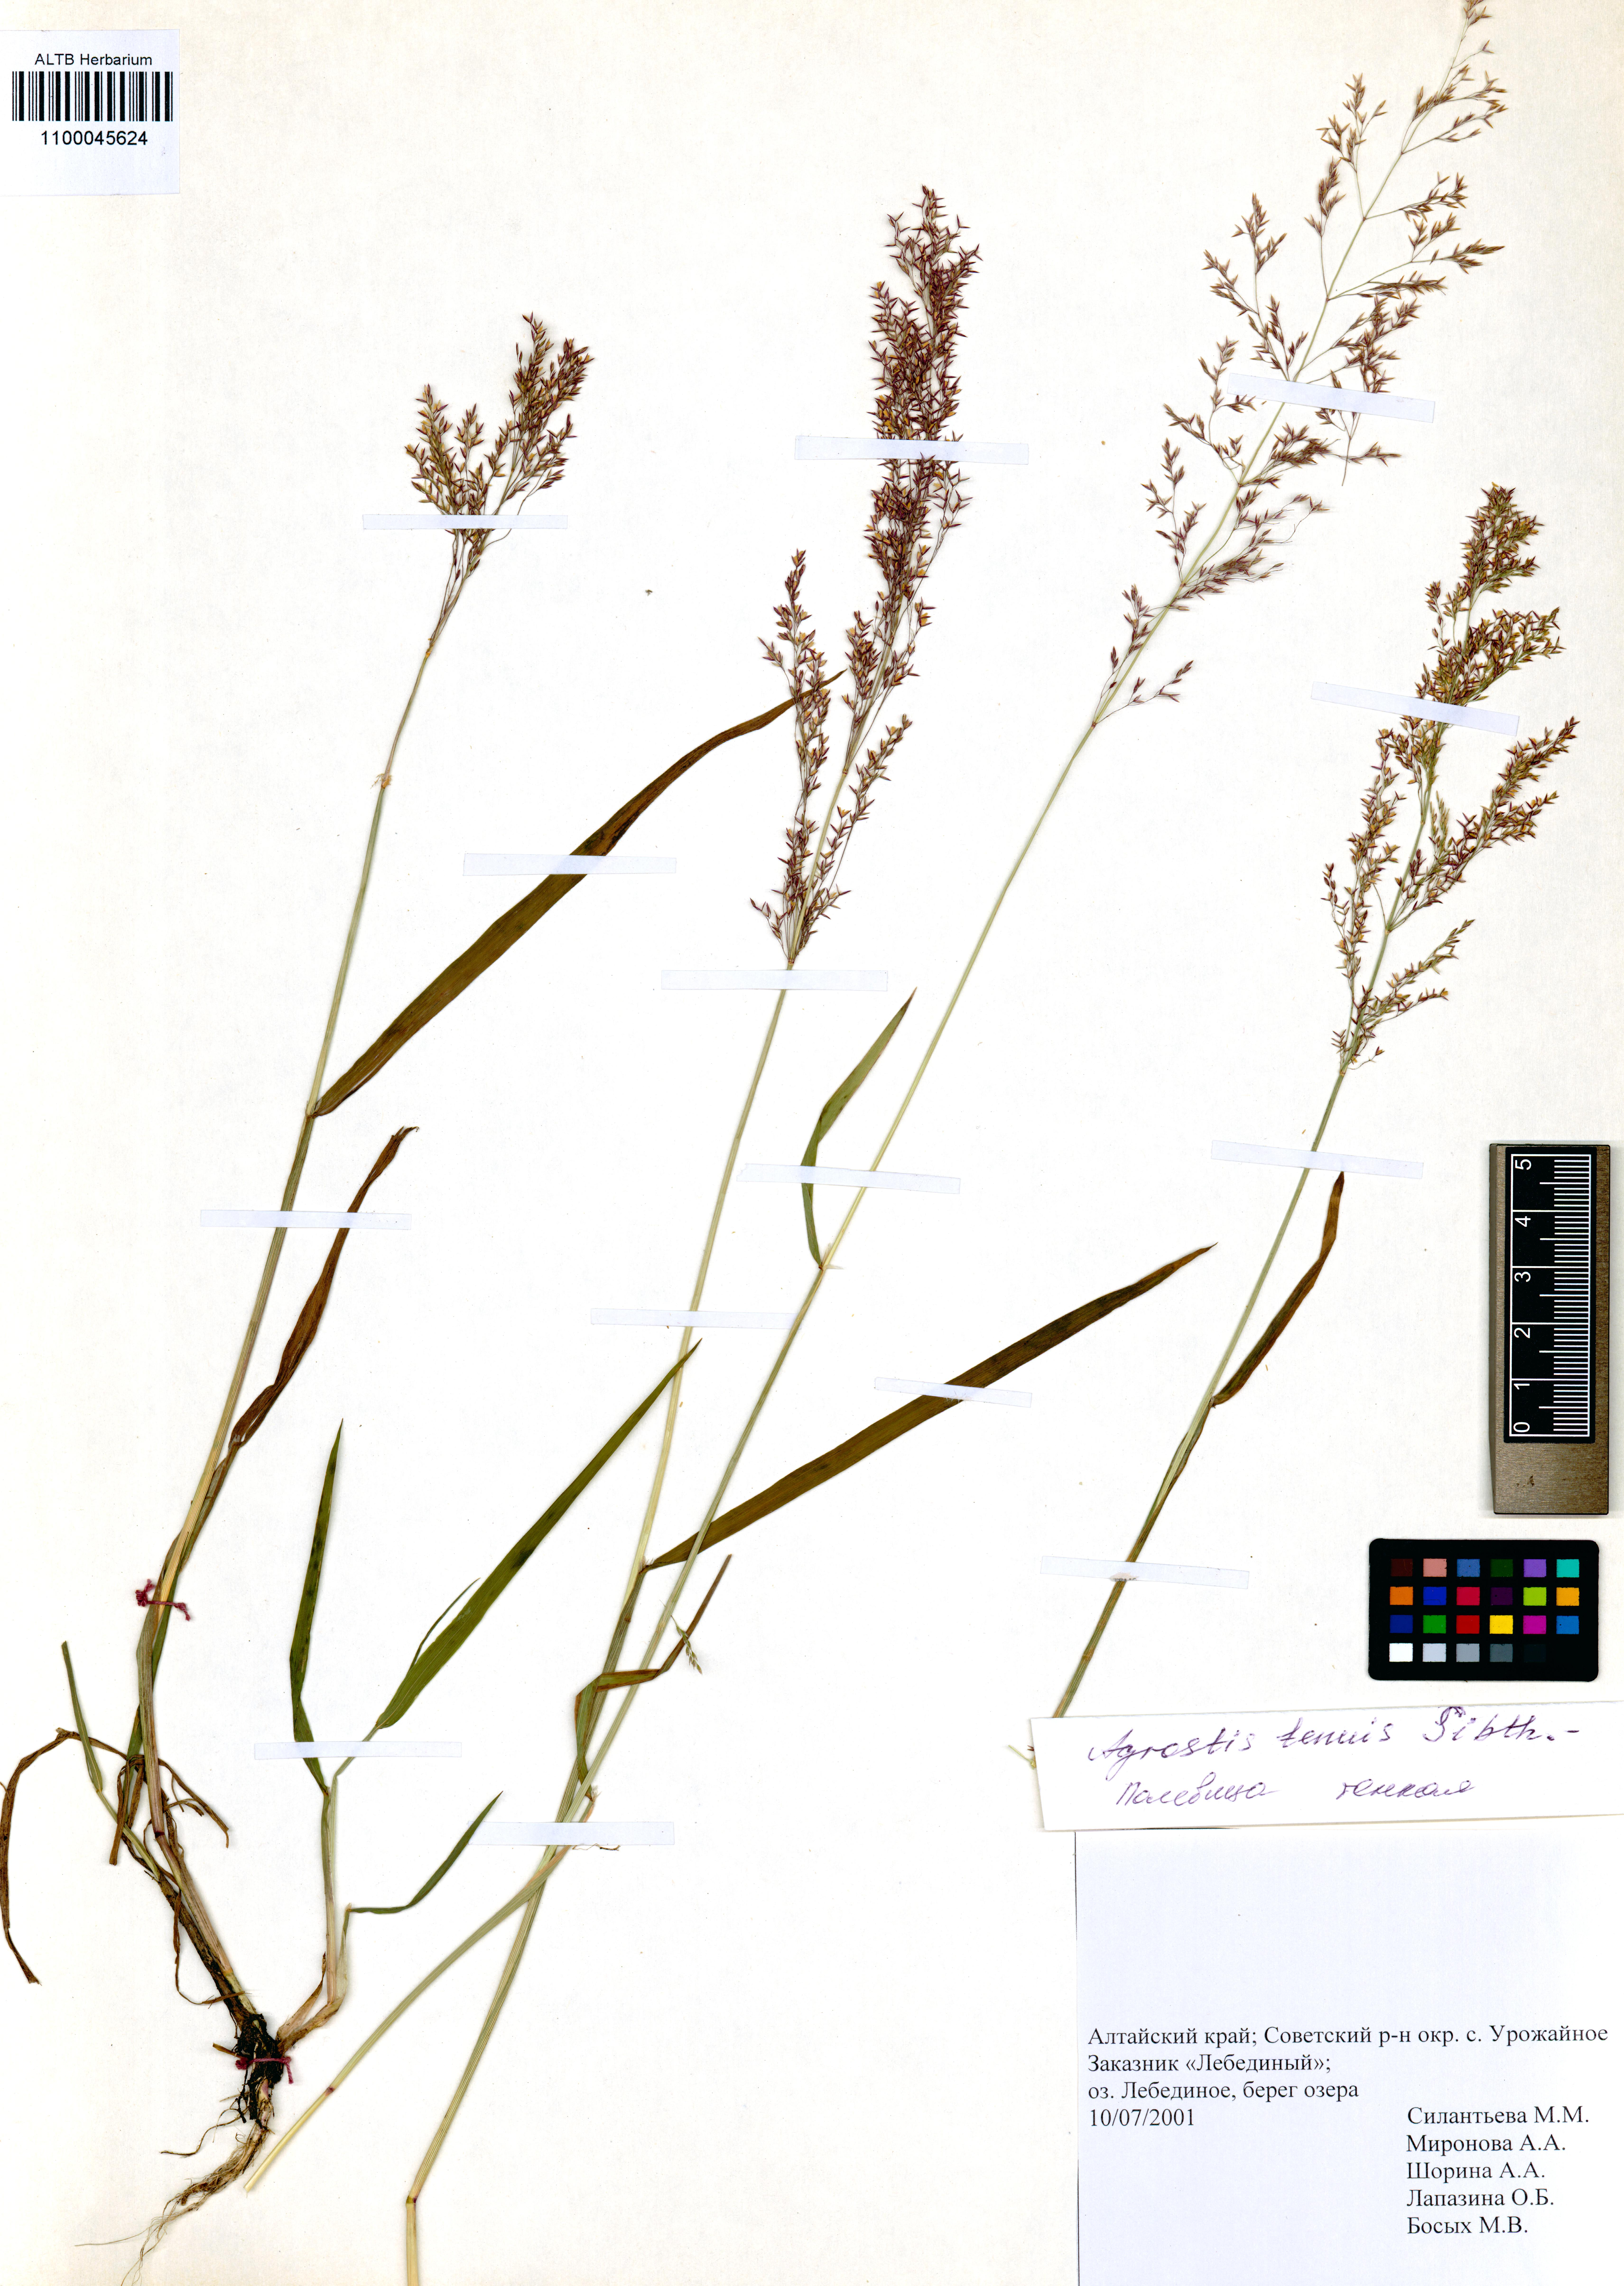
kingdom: Plantae
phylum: Tracheophyta
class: Liliopsida
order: Poales
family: Poaceae
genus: Agrostis
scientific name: Agrostis stolonifera
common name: Creeping bentgrass
